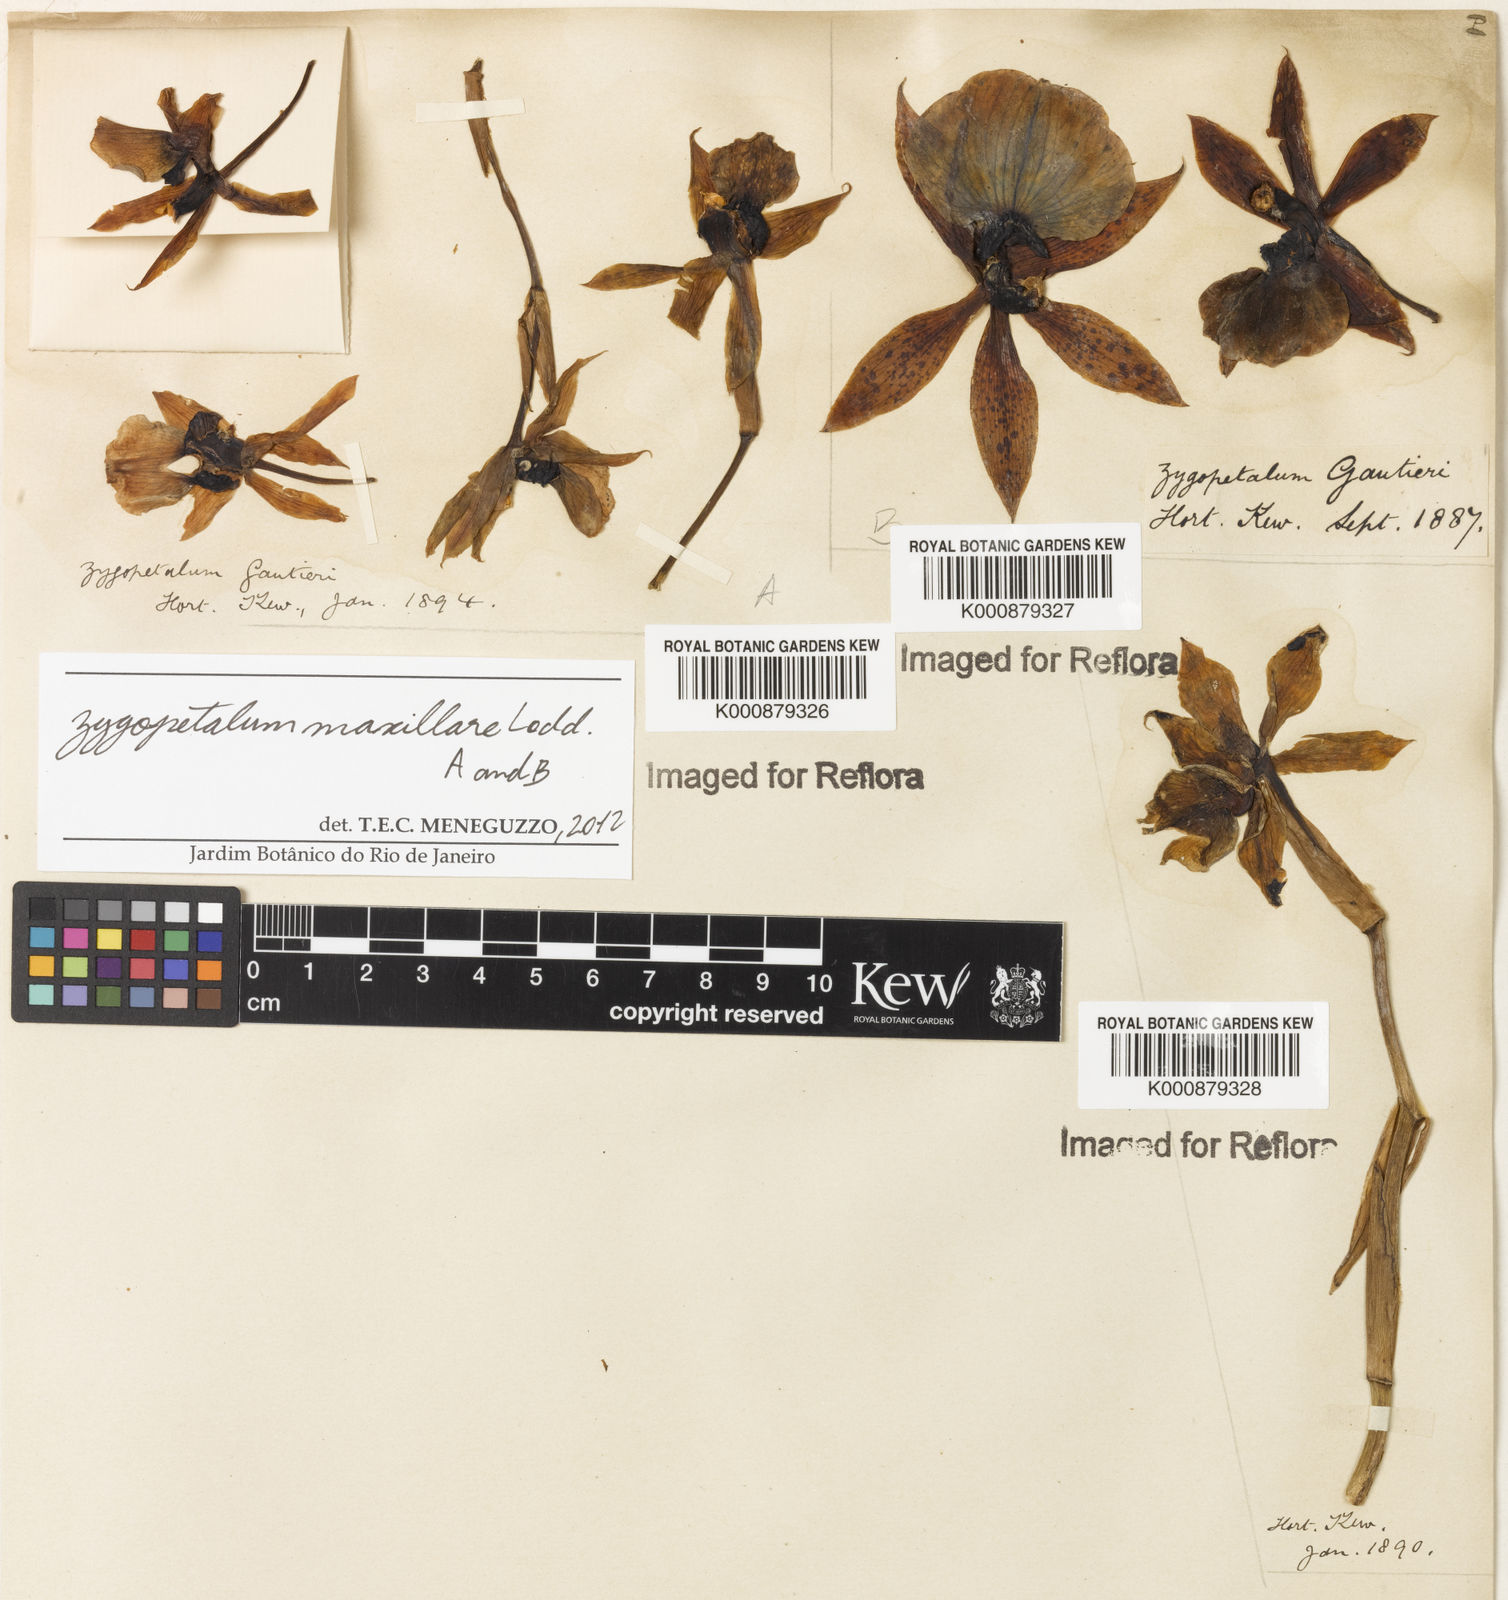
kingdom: Plantae
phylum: Tracheophyta
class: Liliopsida
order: Asparagales
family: Orchidaceae
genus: Zygopetalum
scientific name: Zygopetalum maxillare
